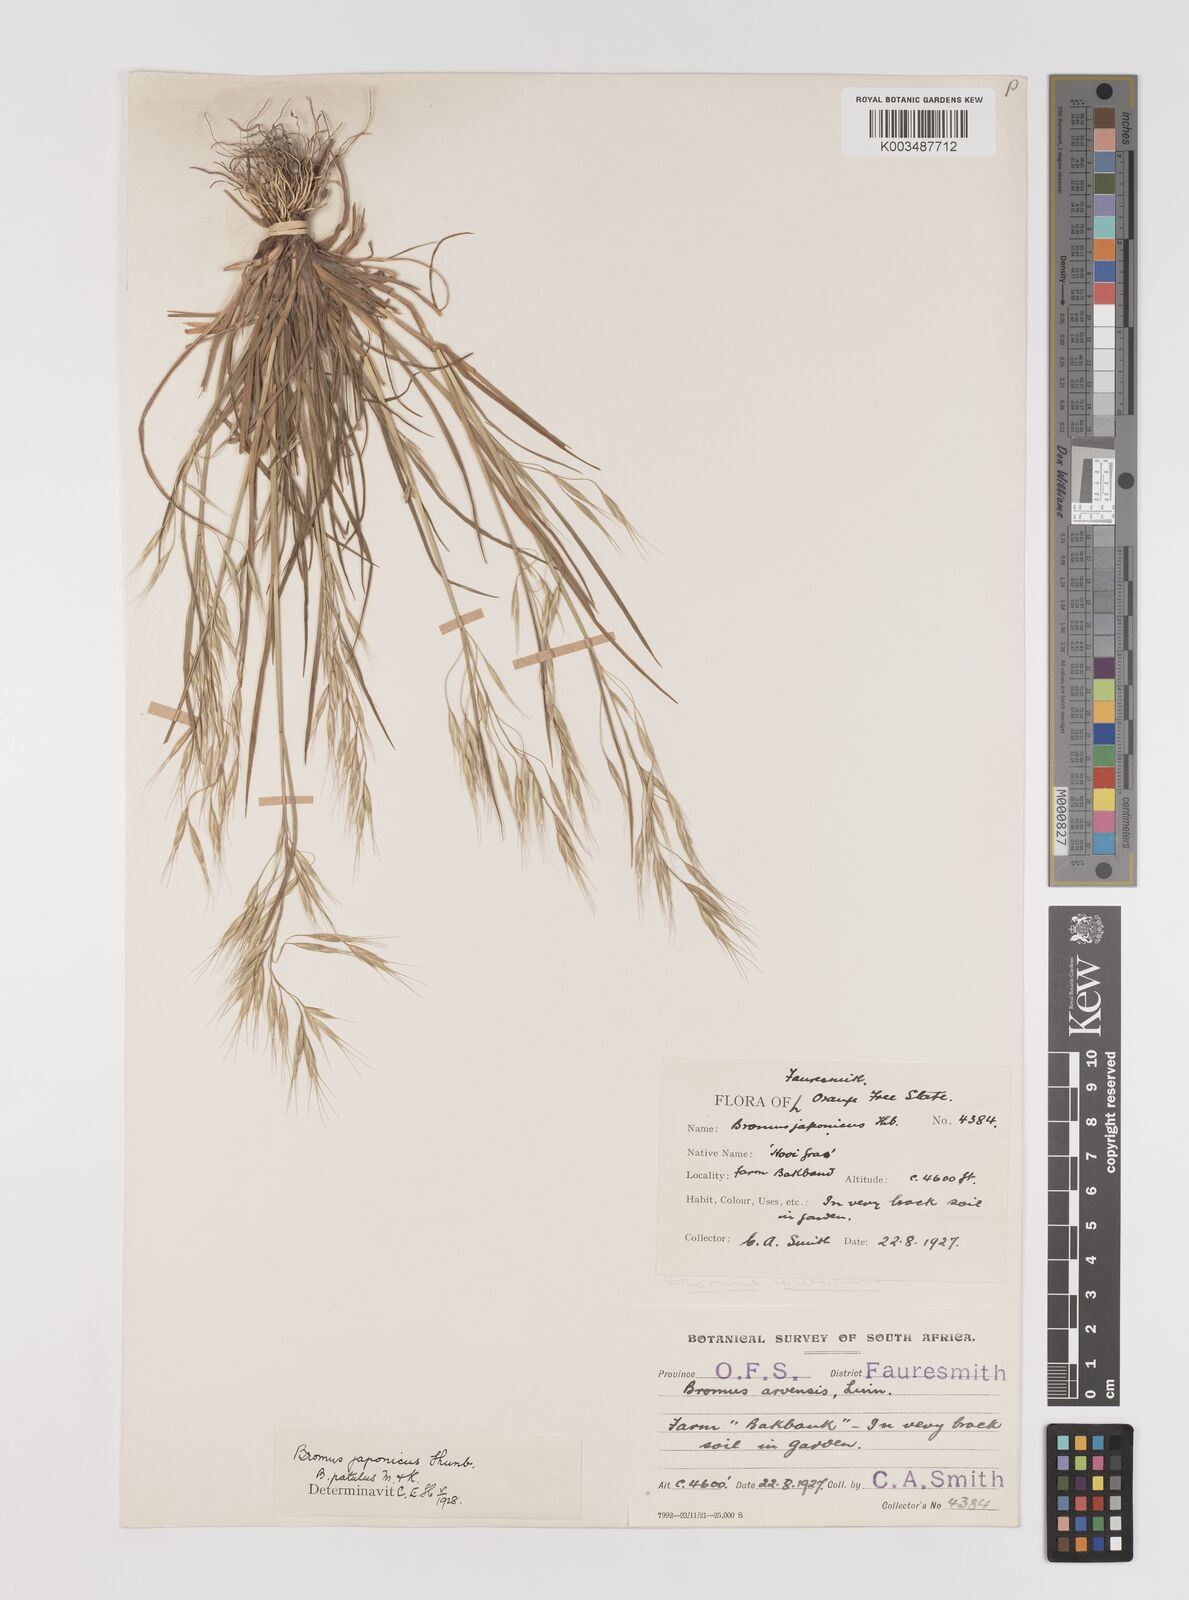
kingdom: Plantae
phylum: Tracheophyta
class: Liliopsida
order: Poales
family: Poaceae
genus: Bromus
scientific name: Bromus pectinatus
